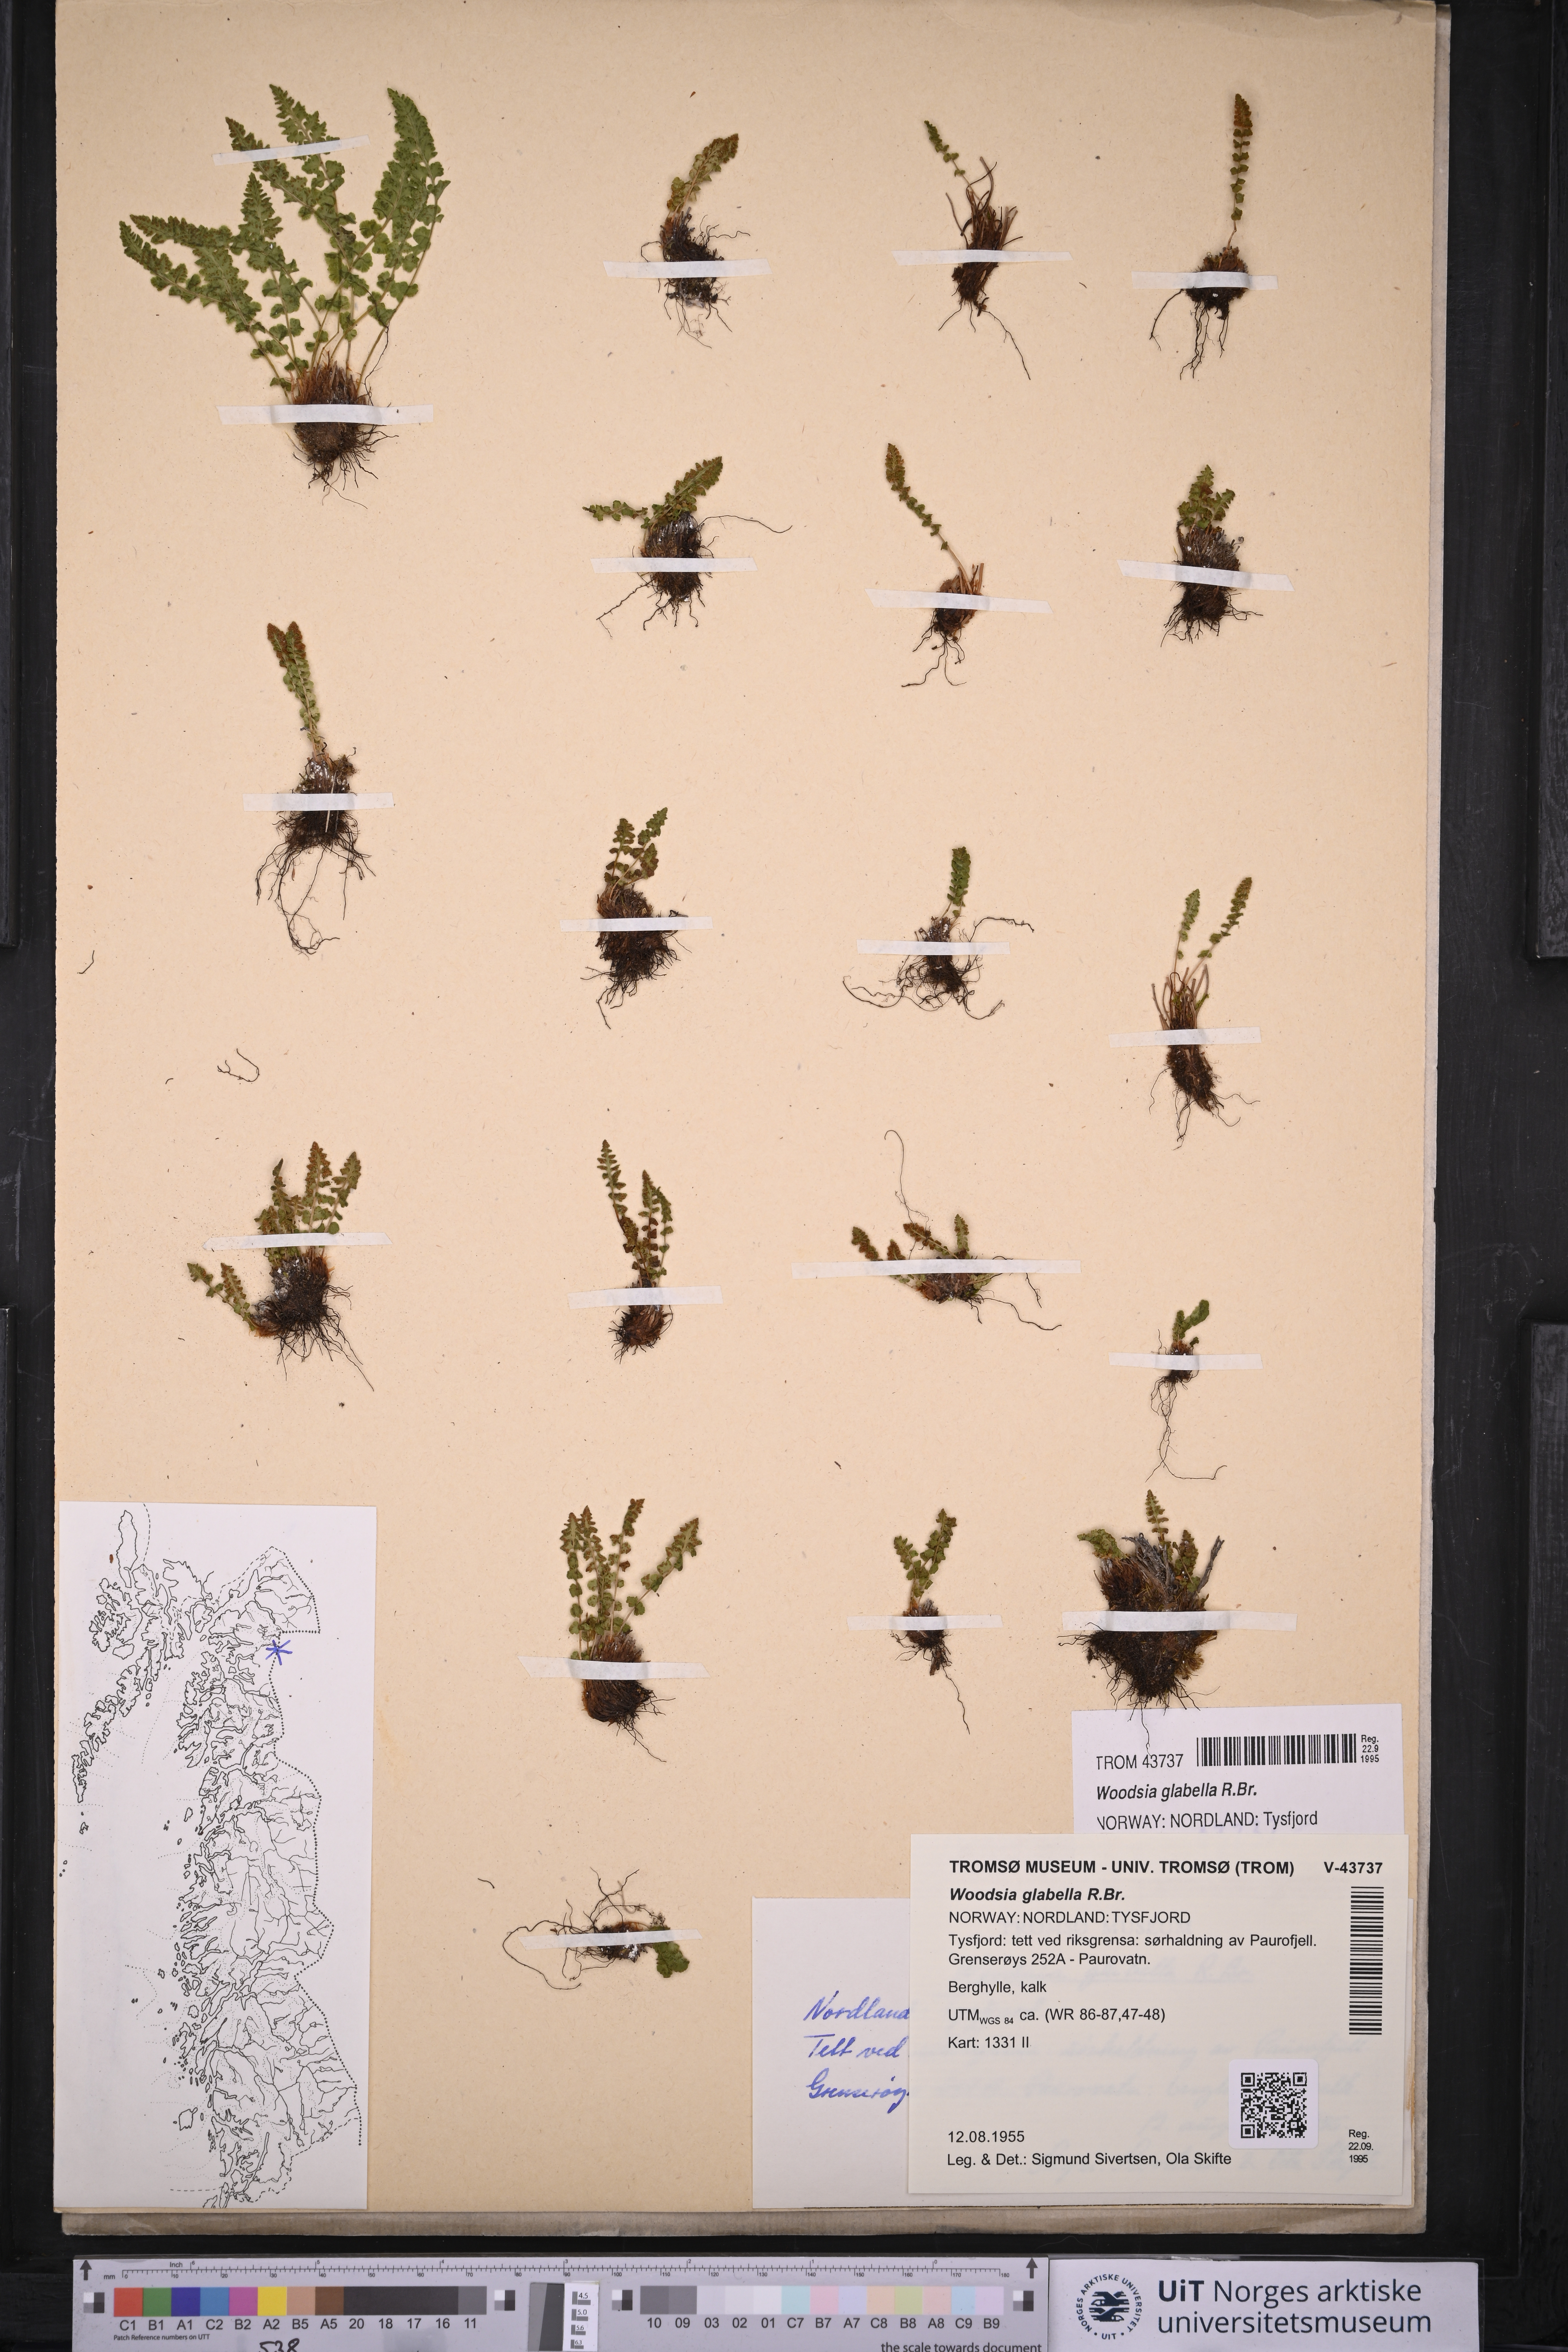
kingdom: Plantae
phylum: Tracheophyta
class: Polypodiopsida
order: Polypodiales
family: Woodsiaceae
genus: Woodsia
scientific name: Woodsia glabella
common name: Smooth woodsia
